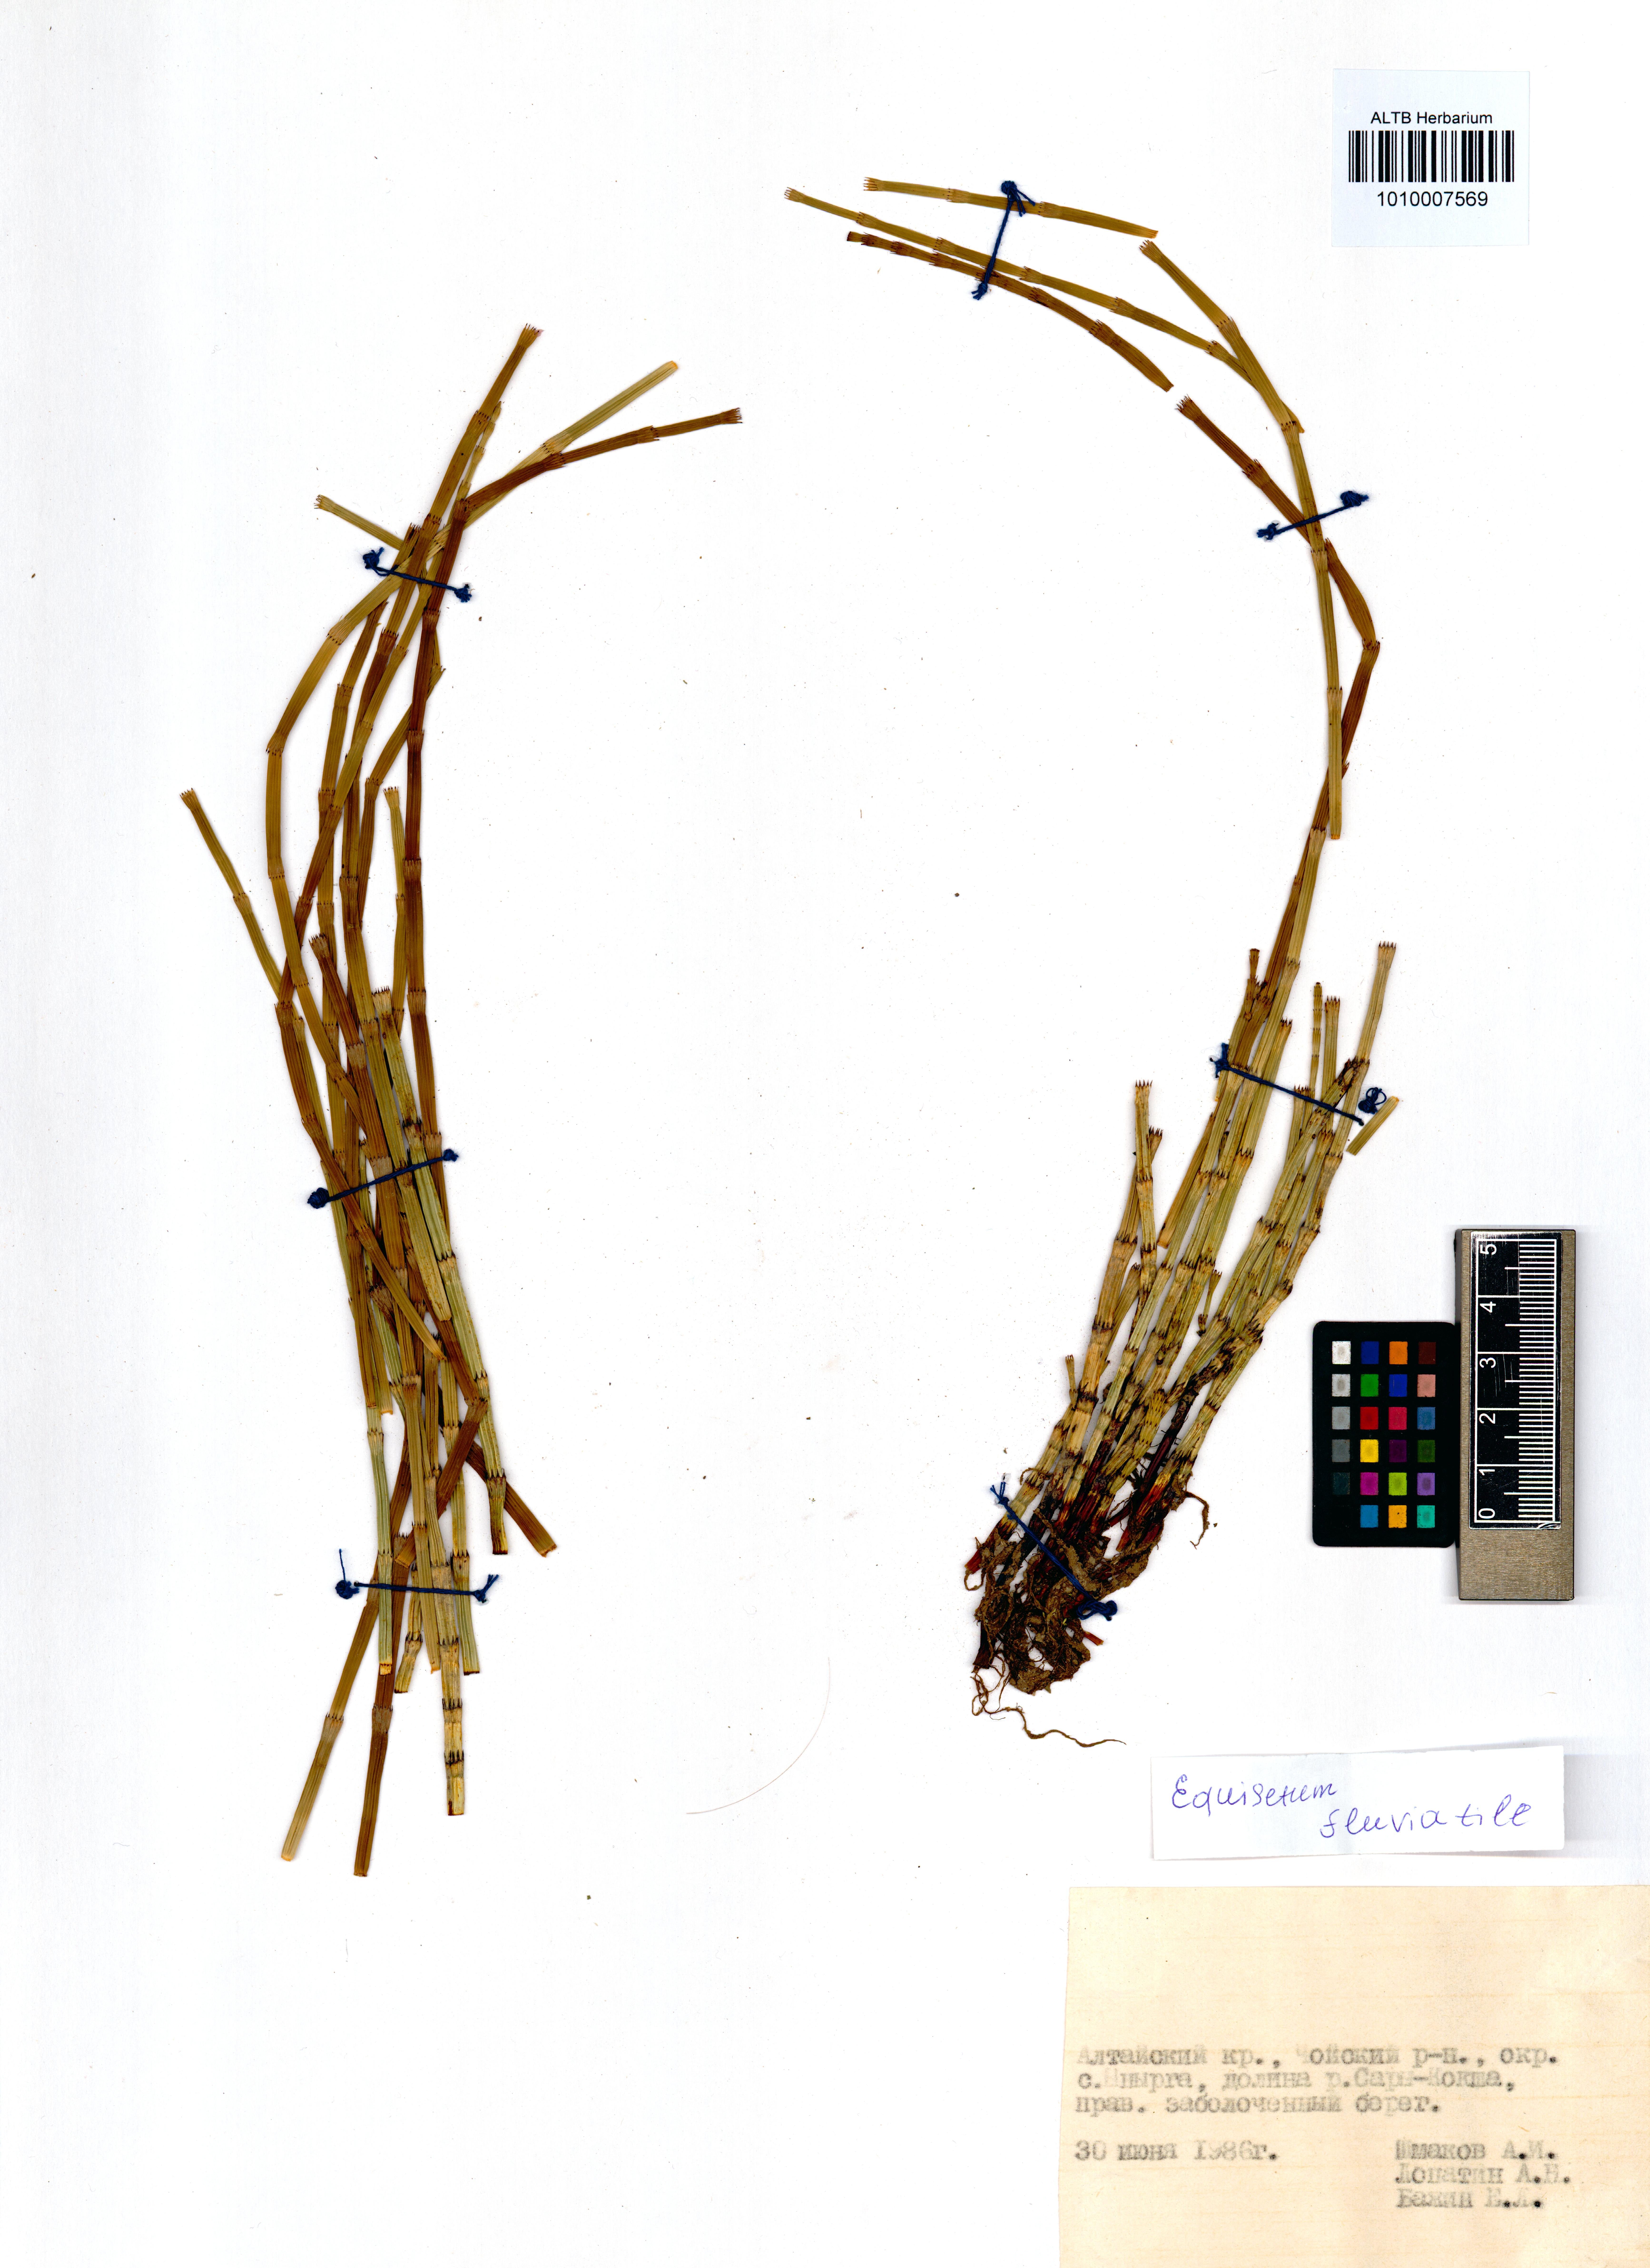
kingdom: Plantae
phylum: Tracheophyta
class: Polypodiopsida
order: Equisetales
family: Equisetaceae
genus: Equisetum
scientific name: Equisetum fluviatile
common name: Water horsetail
